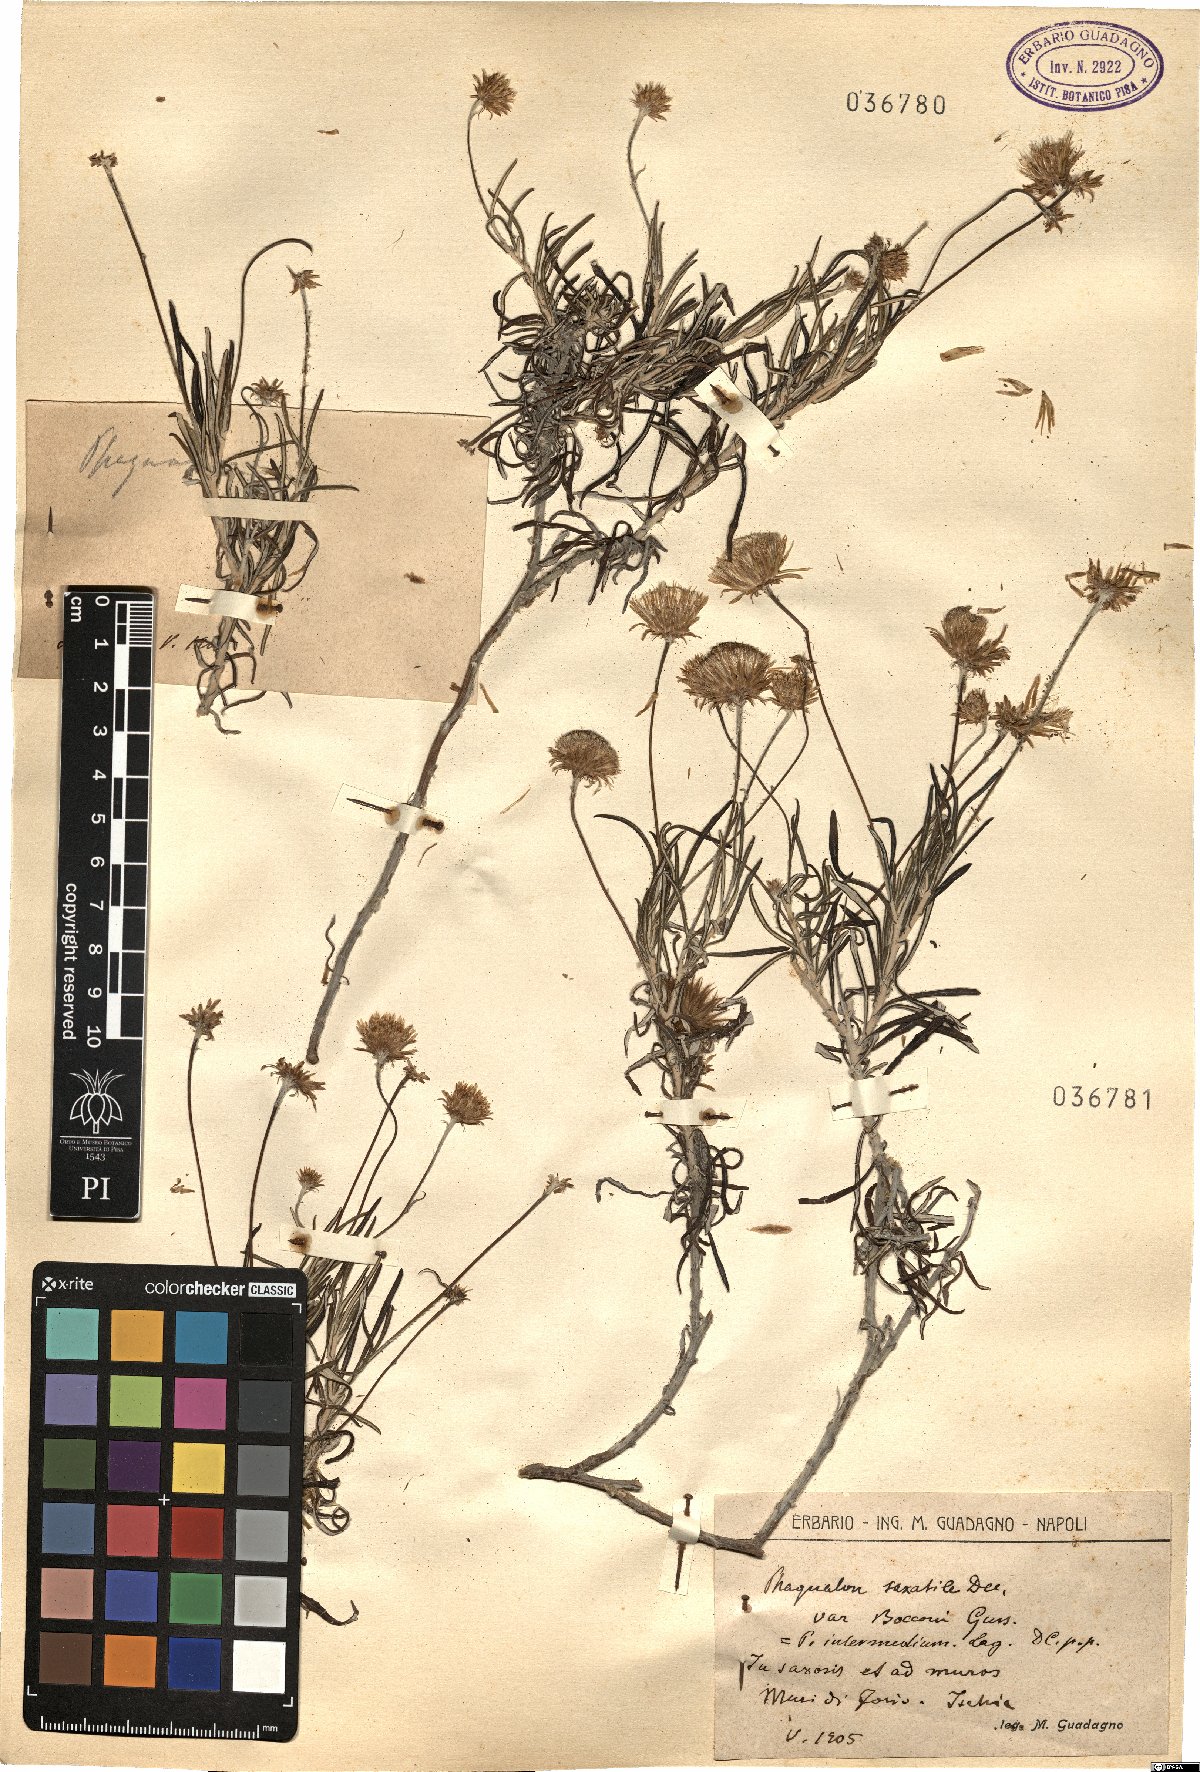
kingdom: Plantae
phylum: Tracheophyta
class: Magnoliopsida
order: Asterales
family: Asteraceae
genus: Phagnalon
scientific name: Phagnalon saxatile
